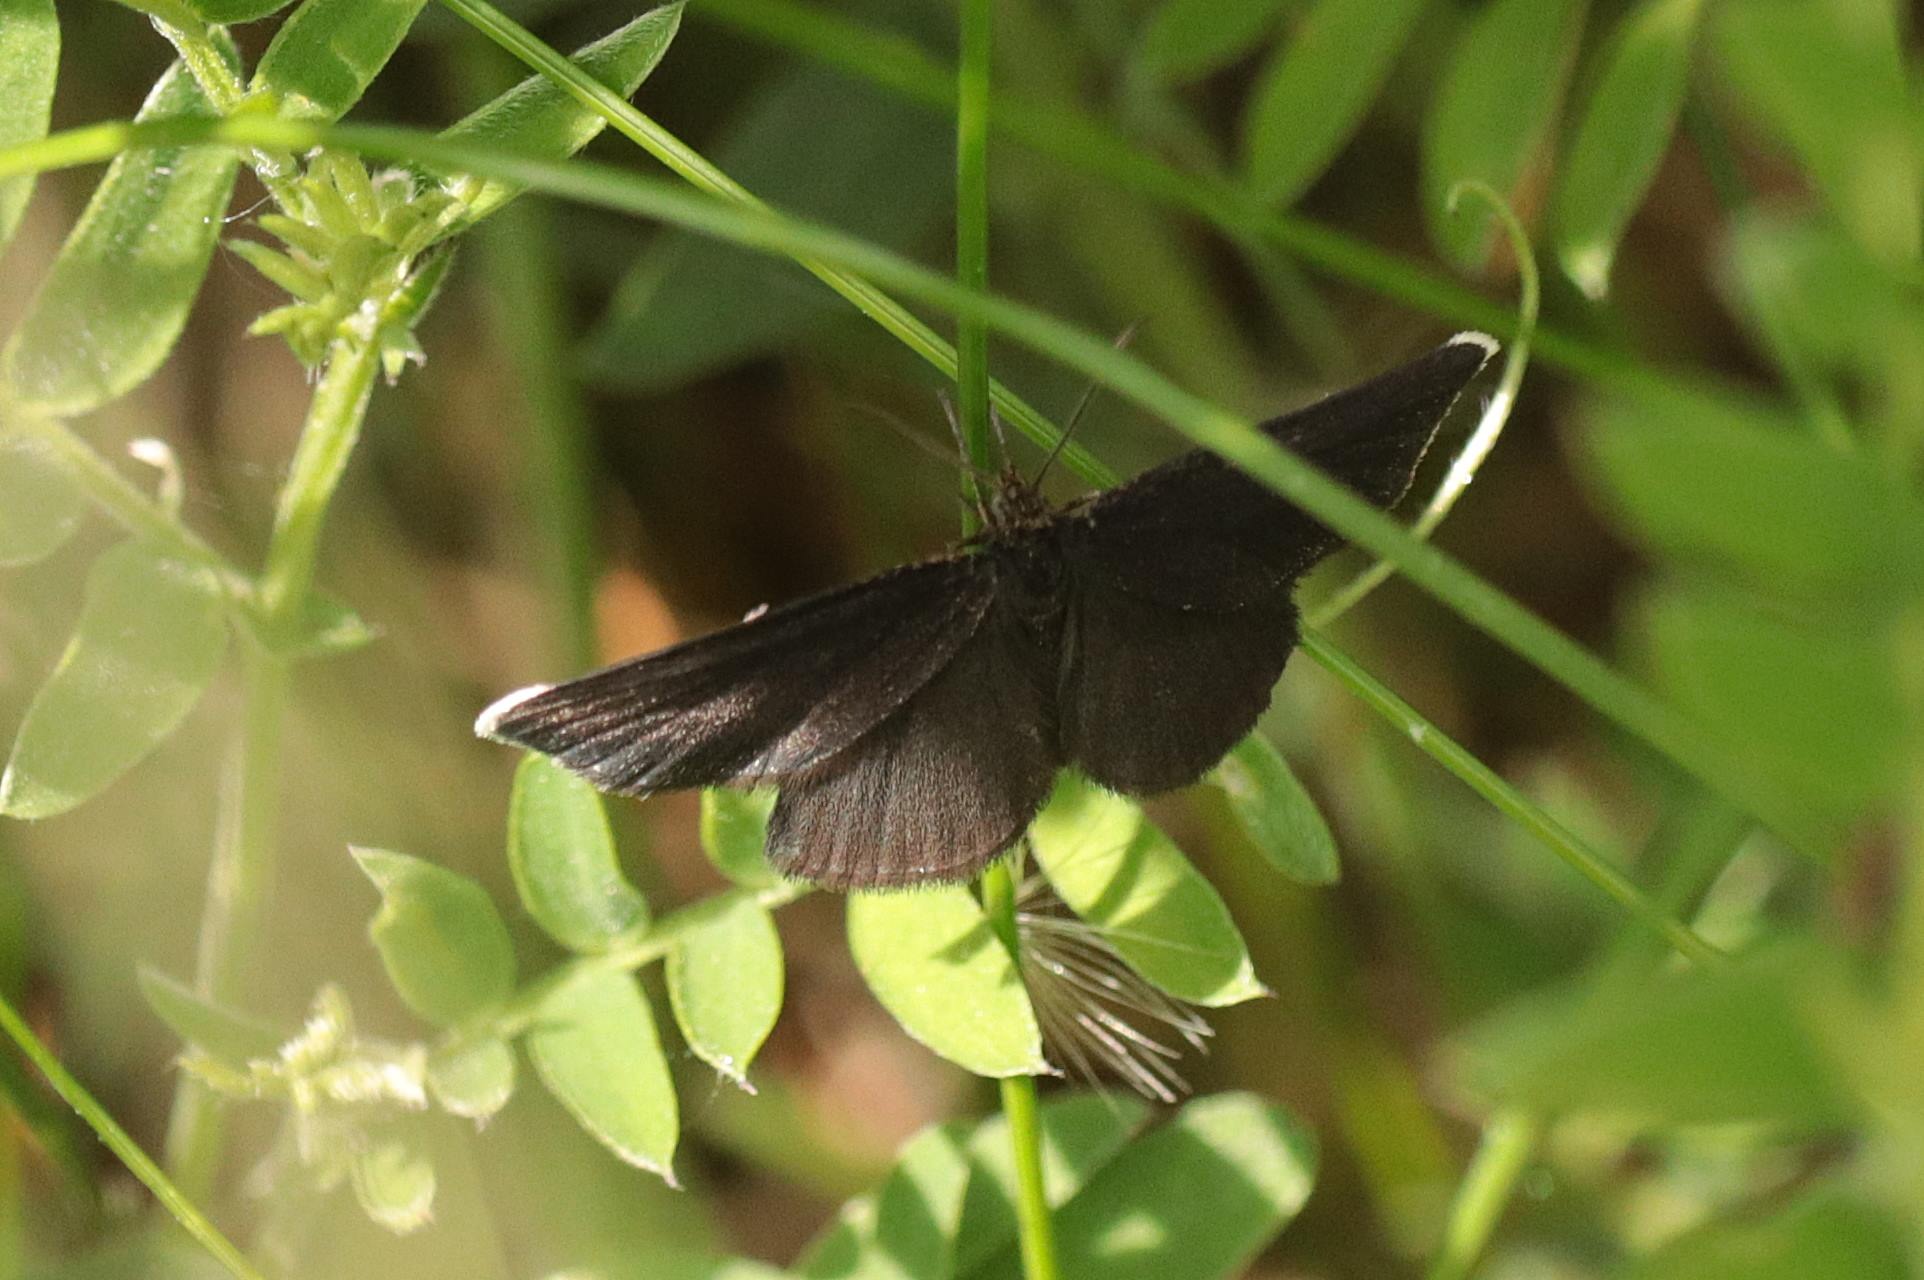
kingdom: Animalia
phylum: Arthropoda
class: Insecta
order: Lepidoptera
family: Geometridae
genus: Odezia
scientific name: Odezia atrata
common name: Sort måler
